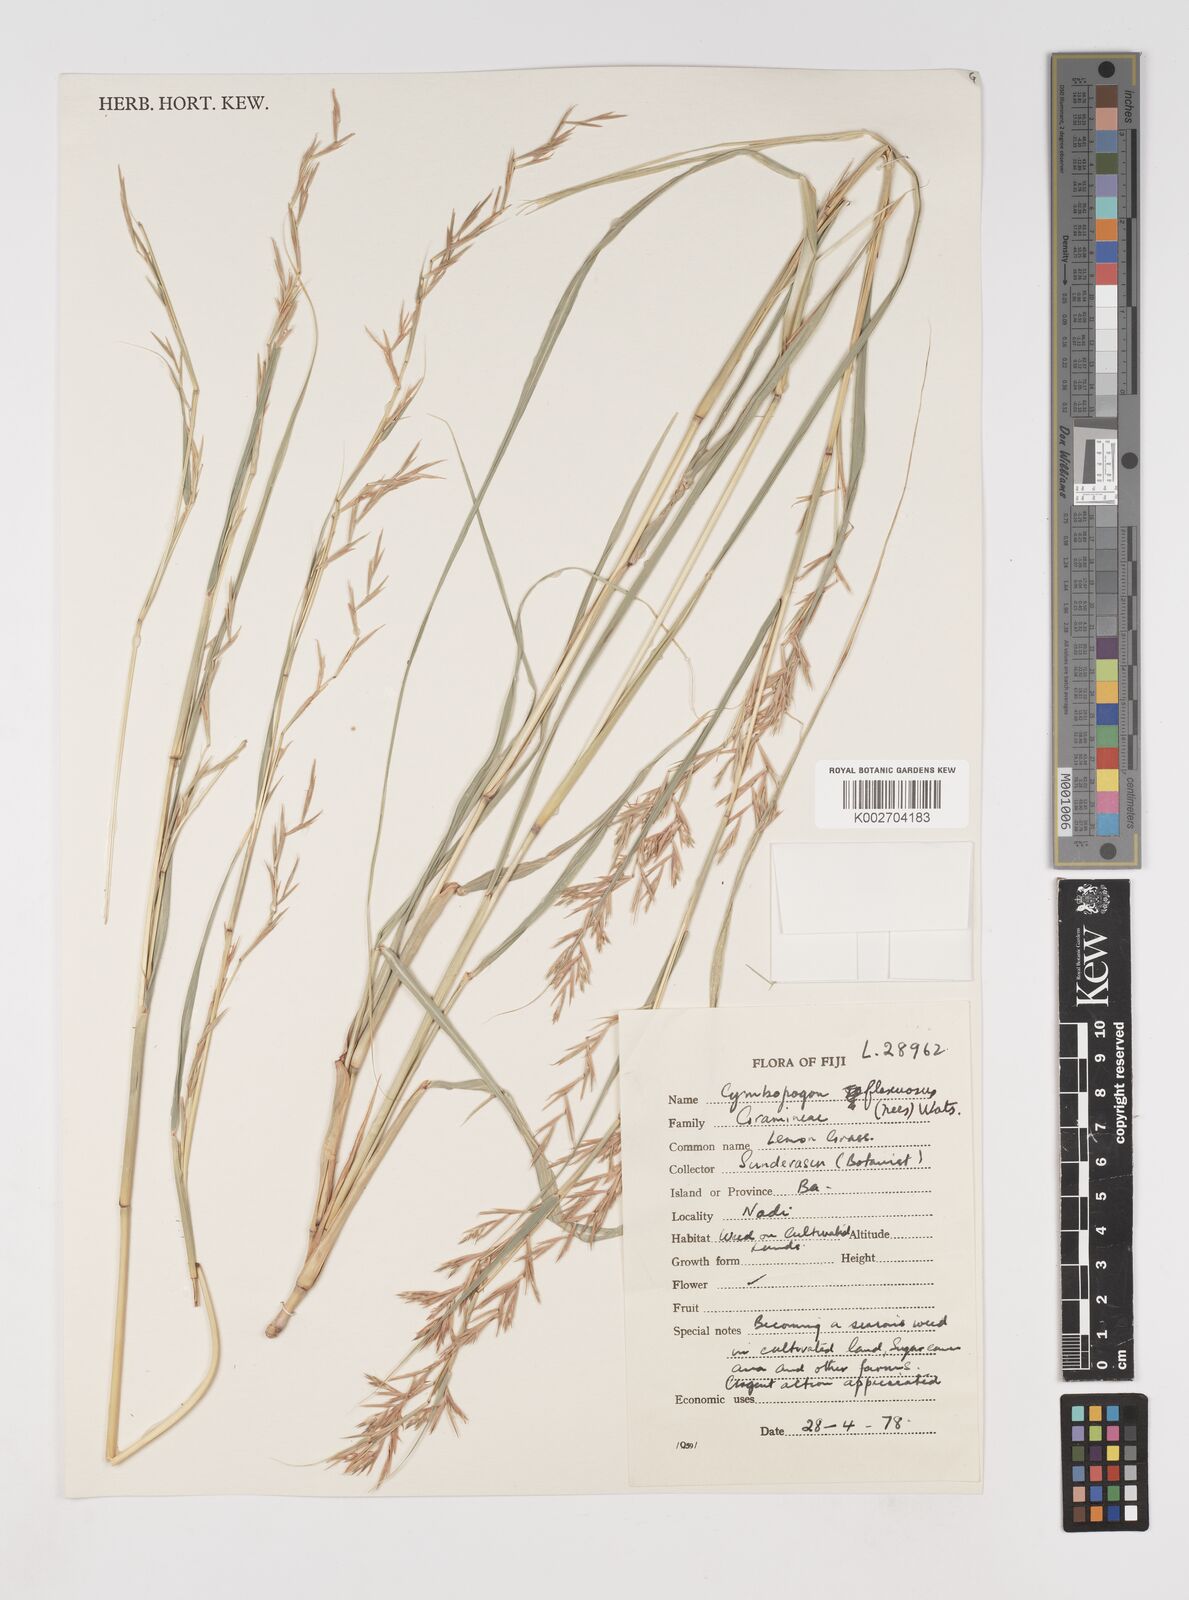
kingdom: Plantae
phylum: Tracheophyta
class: Liliopsida
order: Poales
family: Poaceae
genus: Cymbopogon
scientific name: Cymbopogon nardus
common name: Giant turpentine grass
